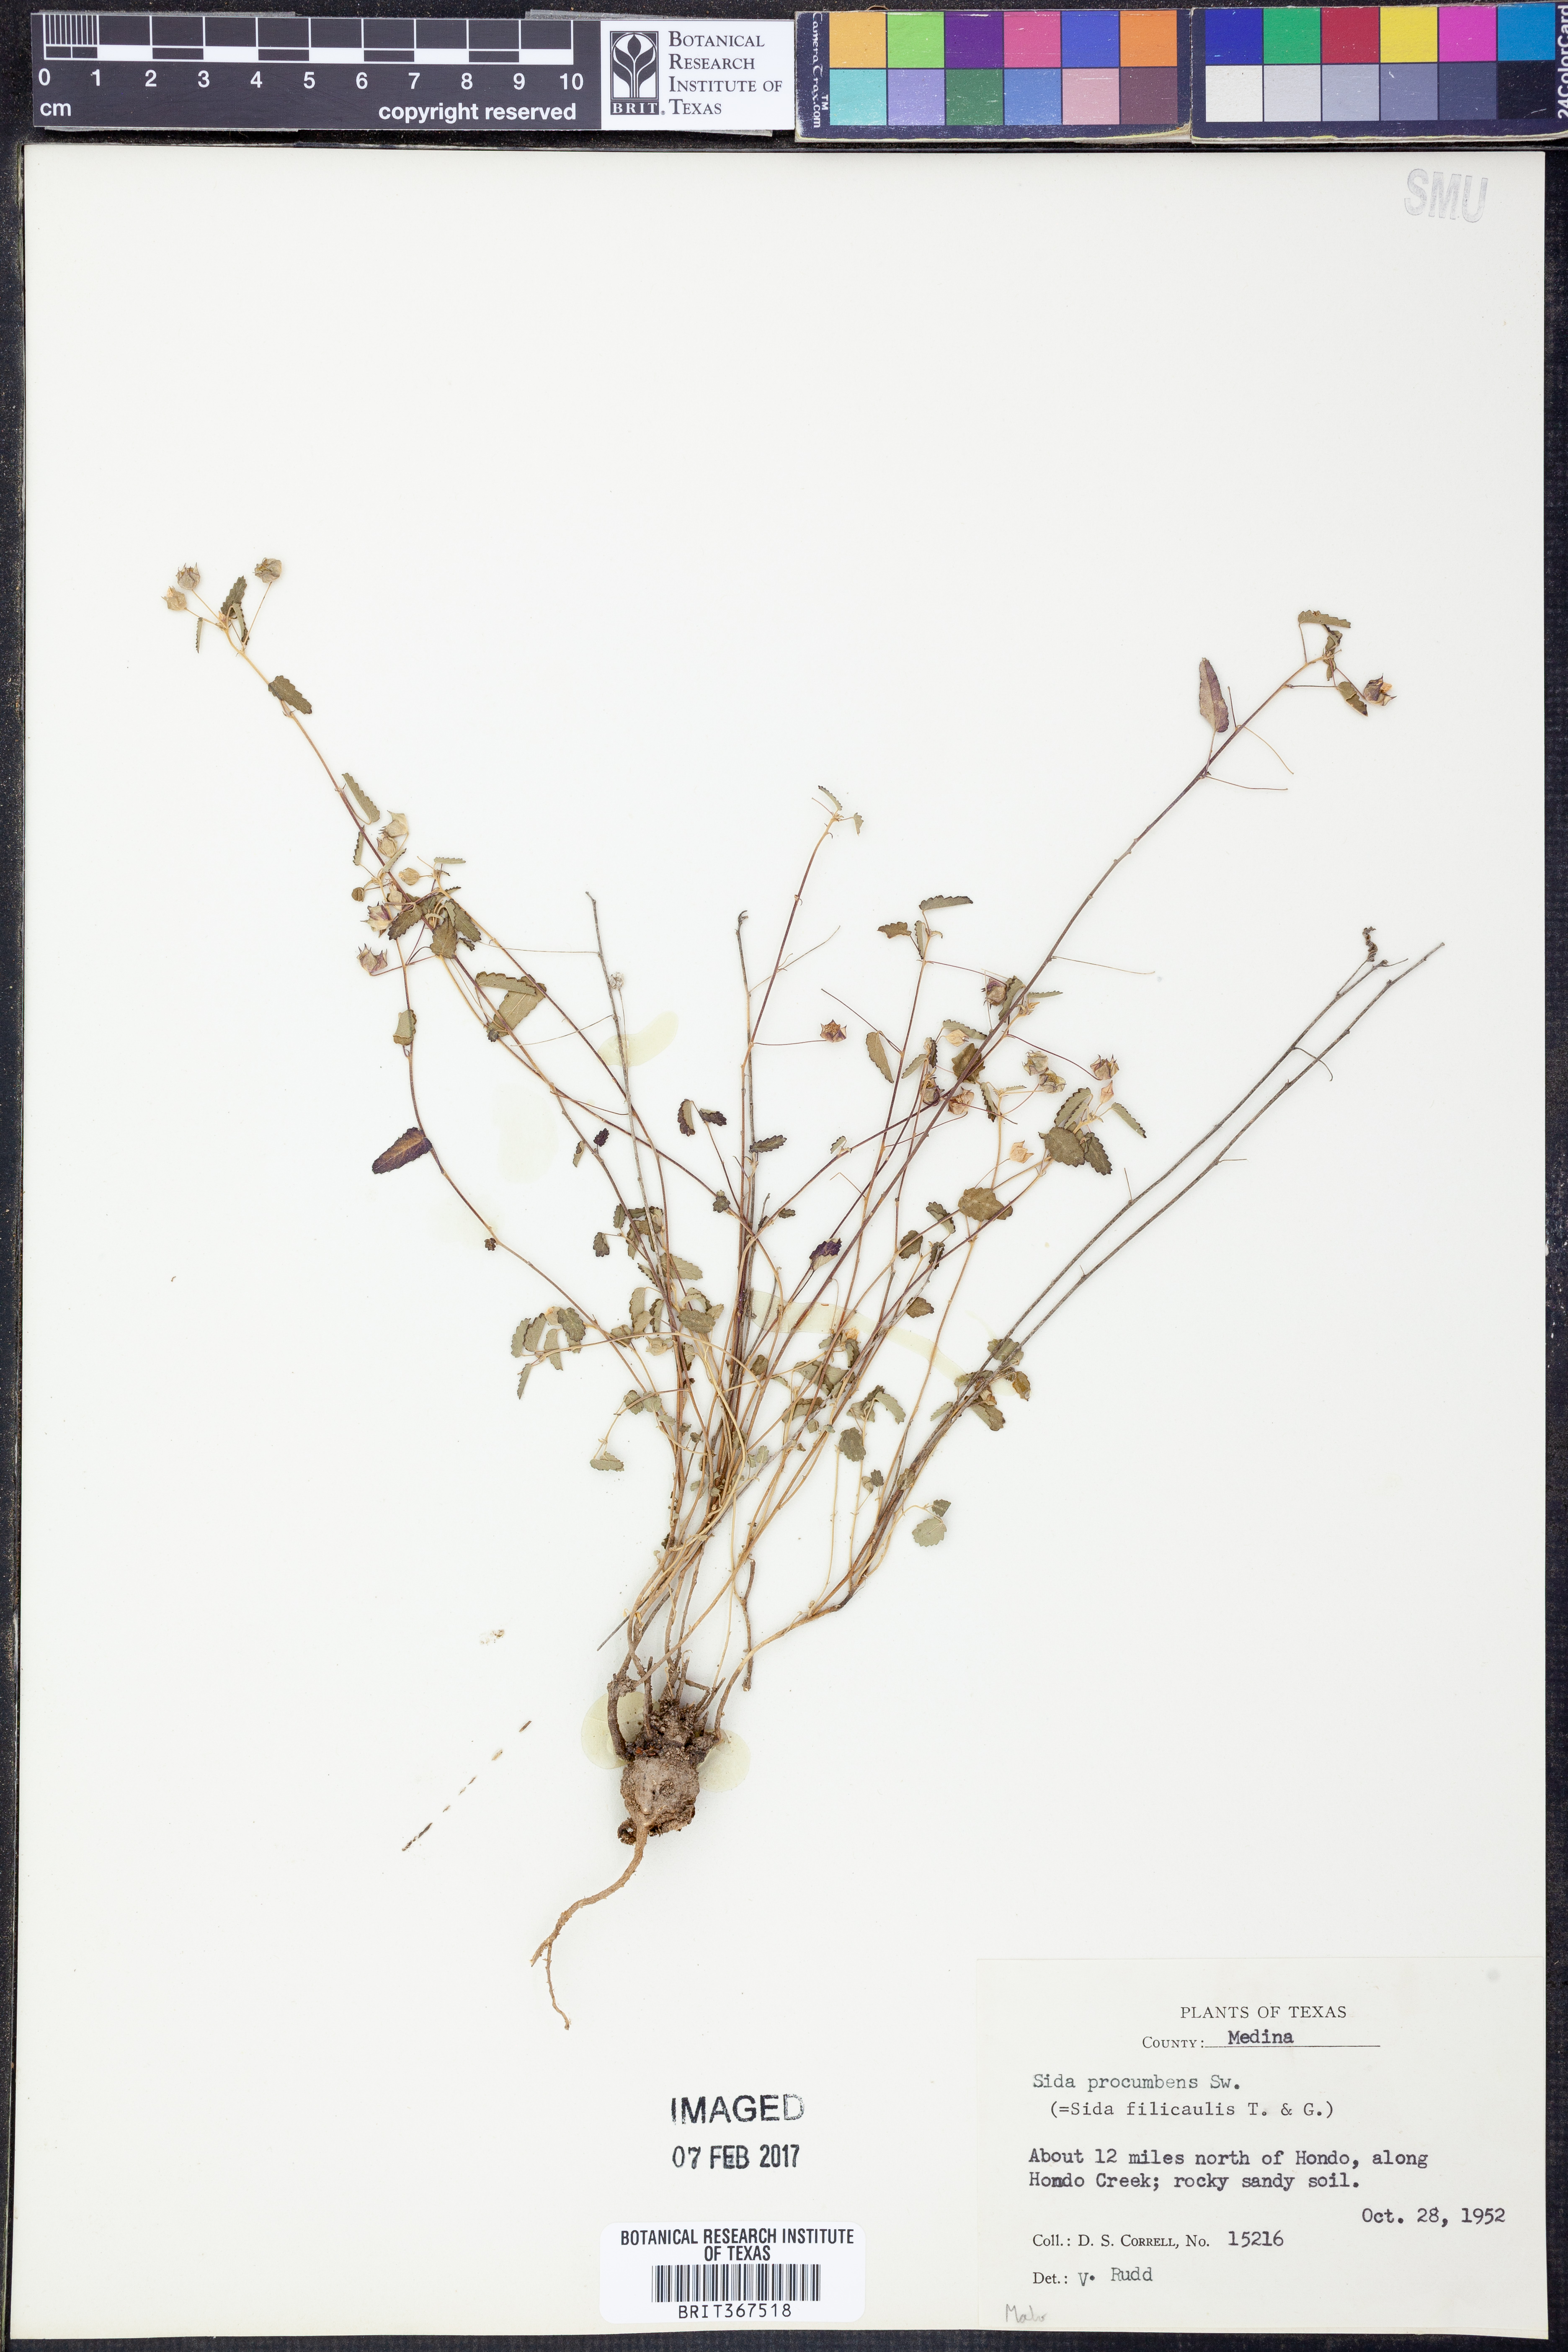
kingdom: Plantae
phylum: Tracheophyta
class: Magnoliopsida
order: Malvales
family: Malvaceae
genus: Sida
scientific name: Sida abutilifolia
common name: Spreading fanpetals
